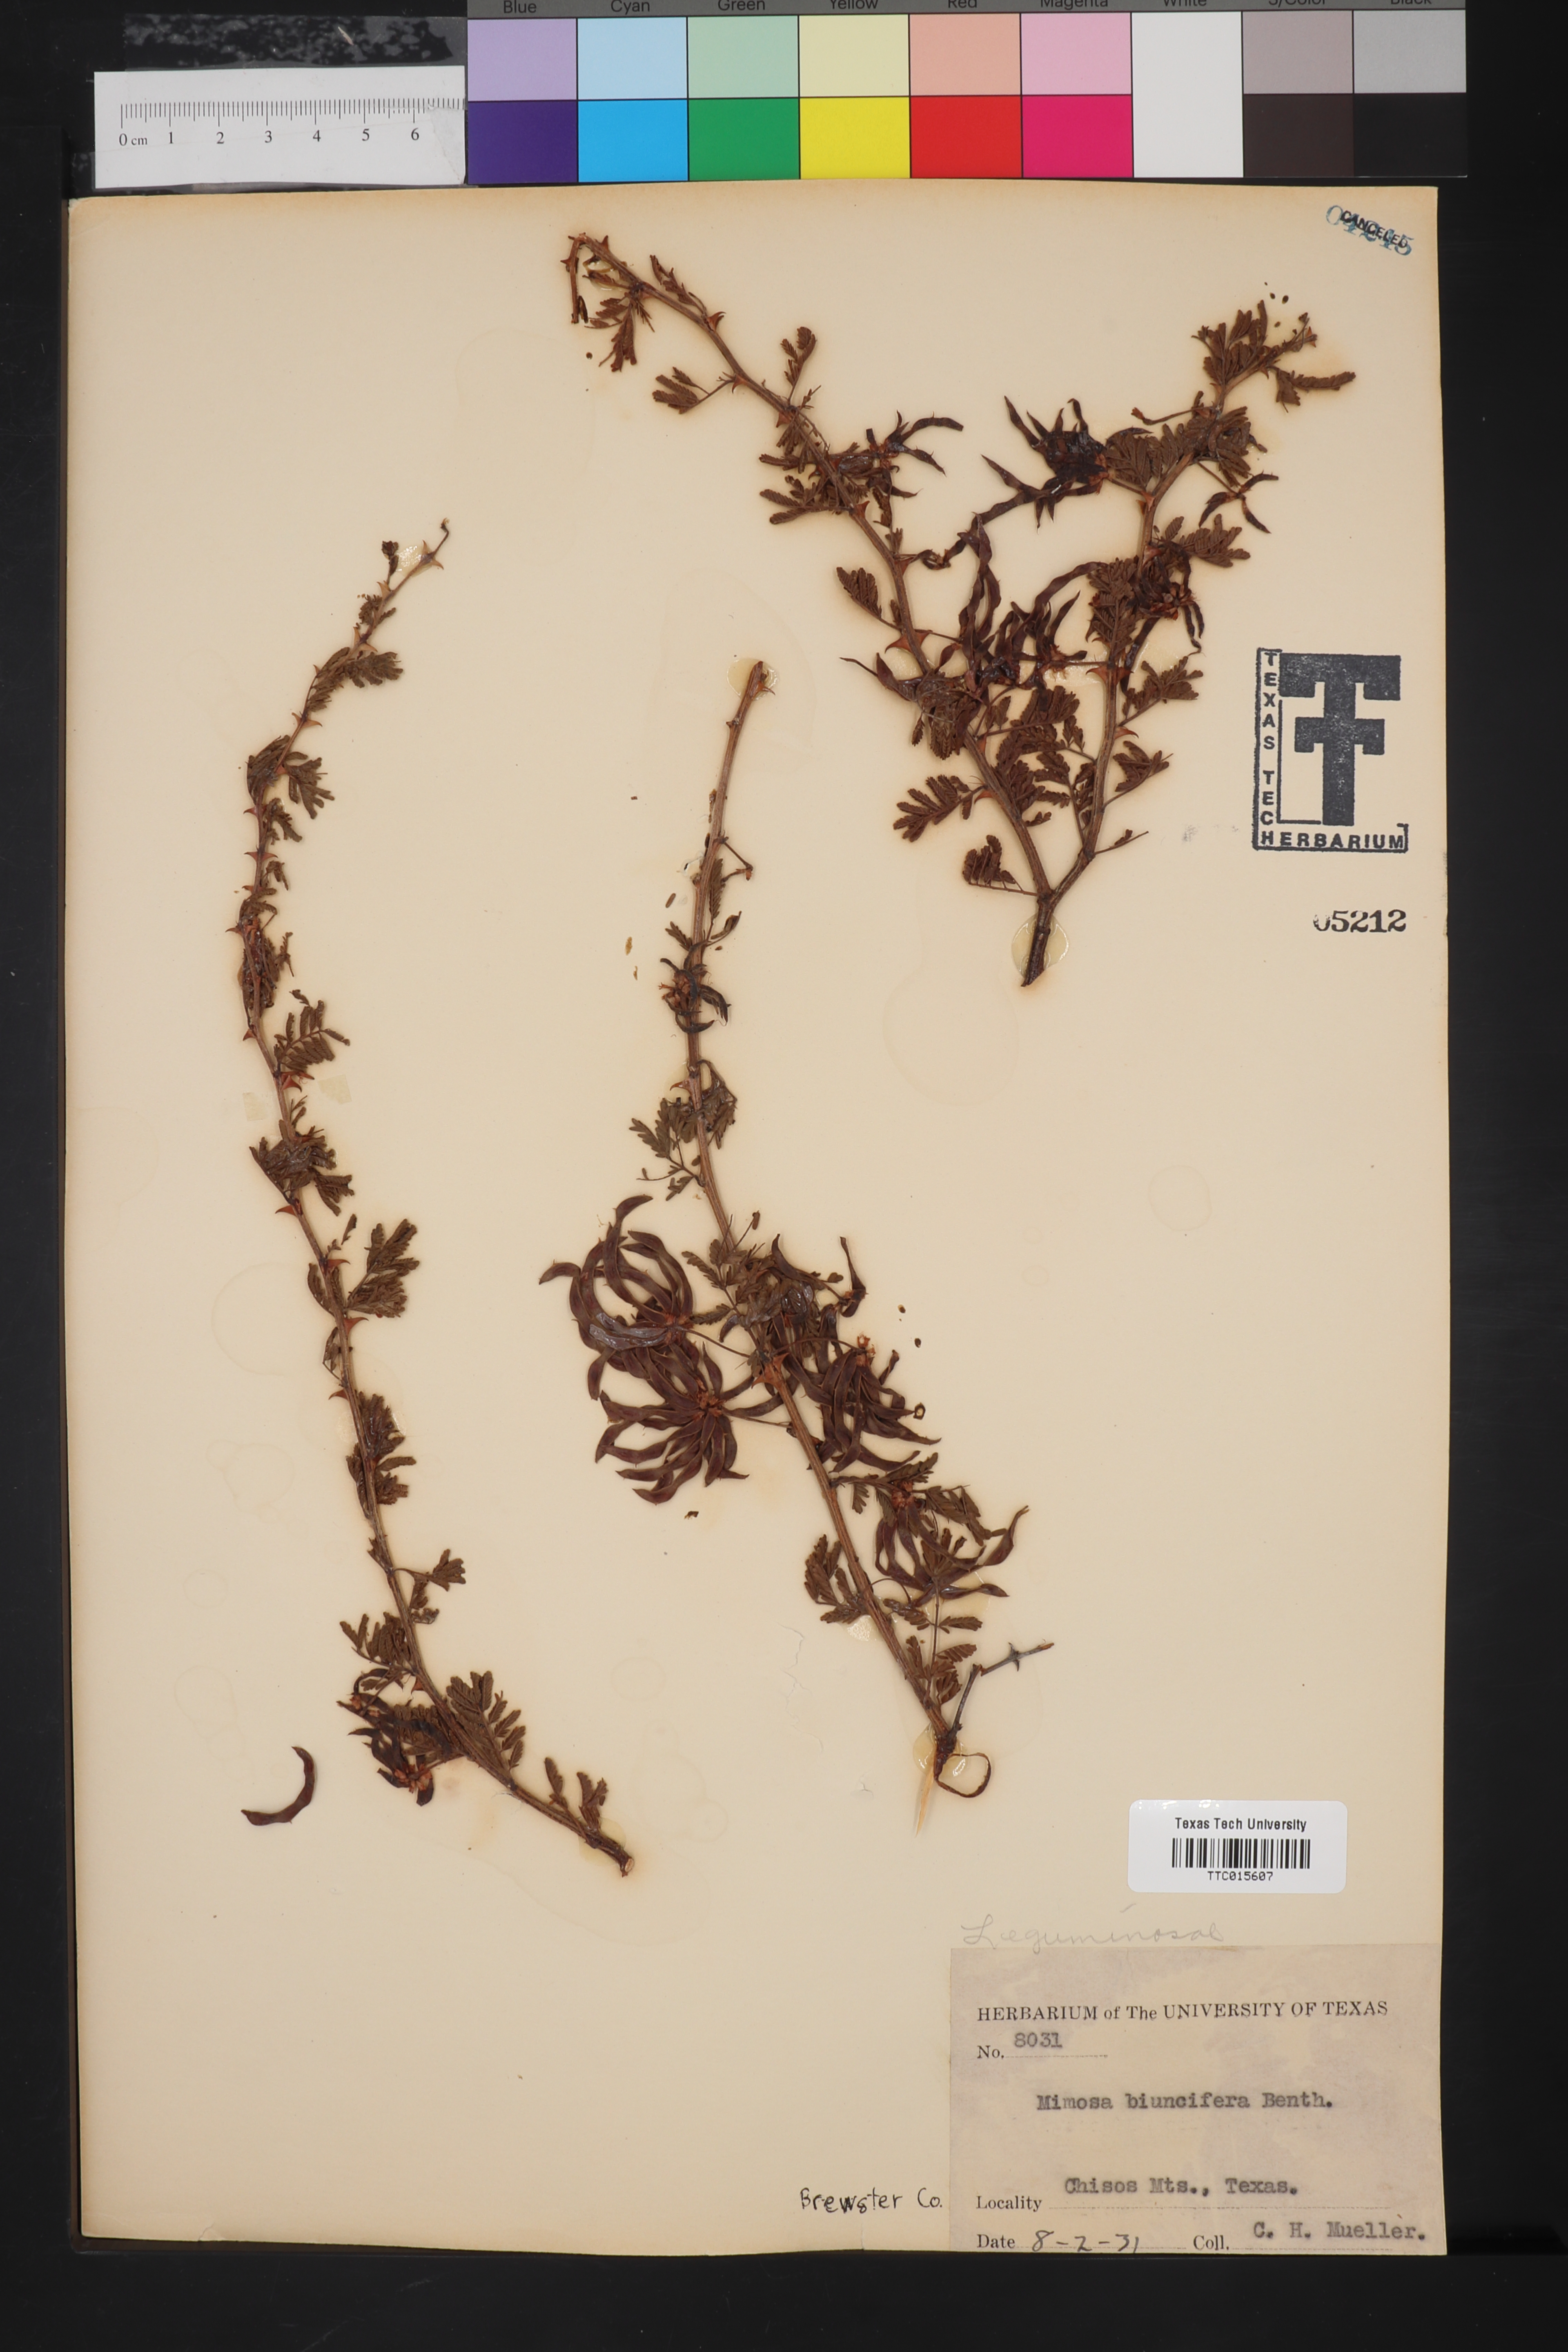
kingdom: Plantae
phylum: Tracheophyta
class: Magnoliopsida
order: Fabales
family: Fabaceae
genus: Mimosa
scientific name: Mimosa biuncifera
